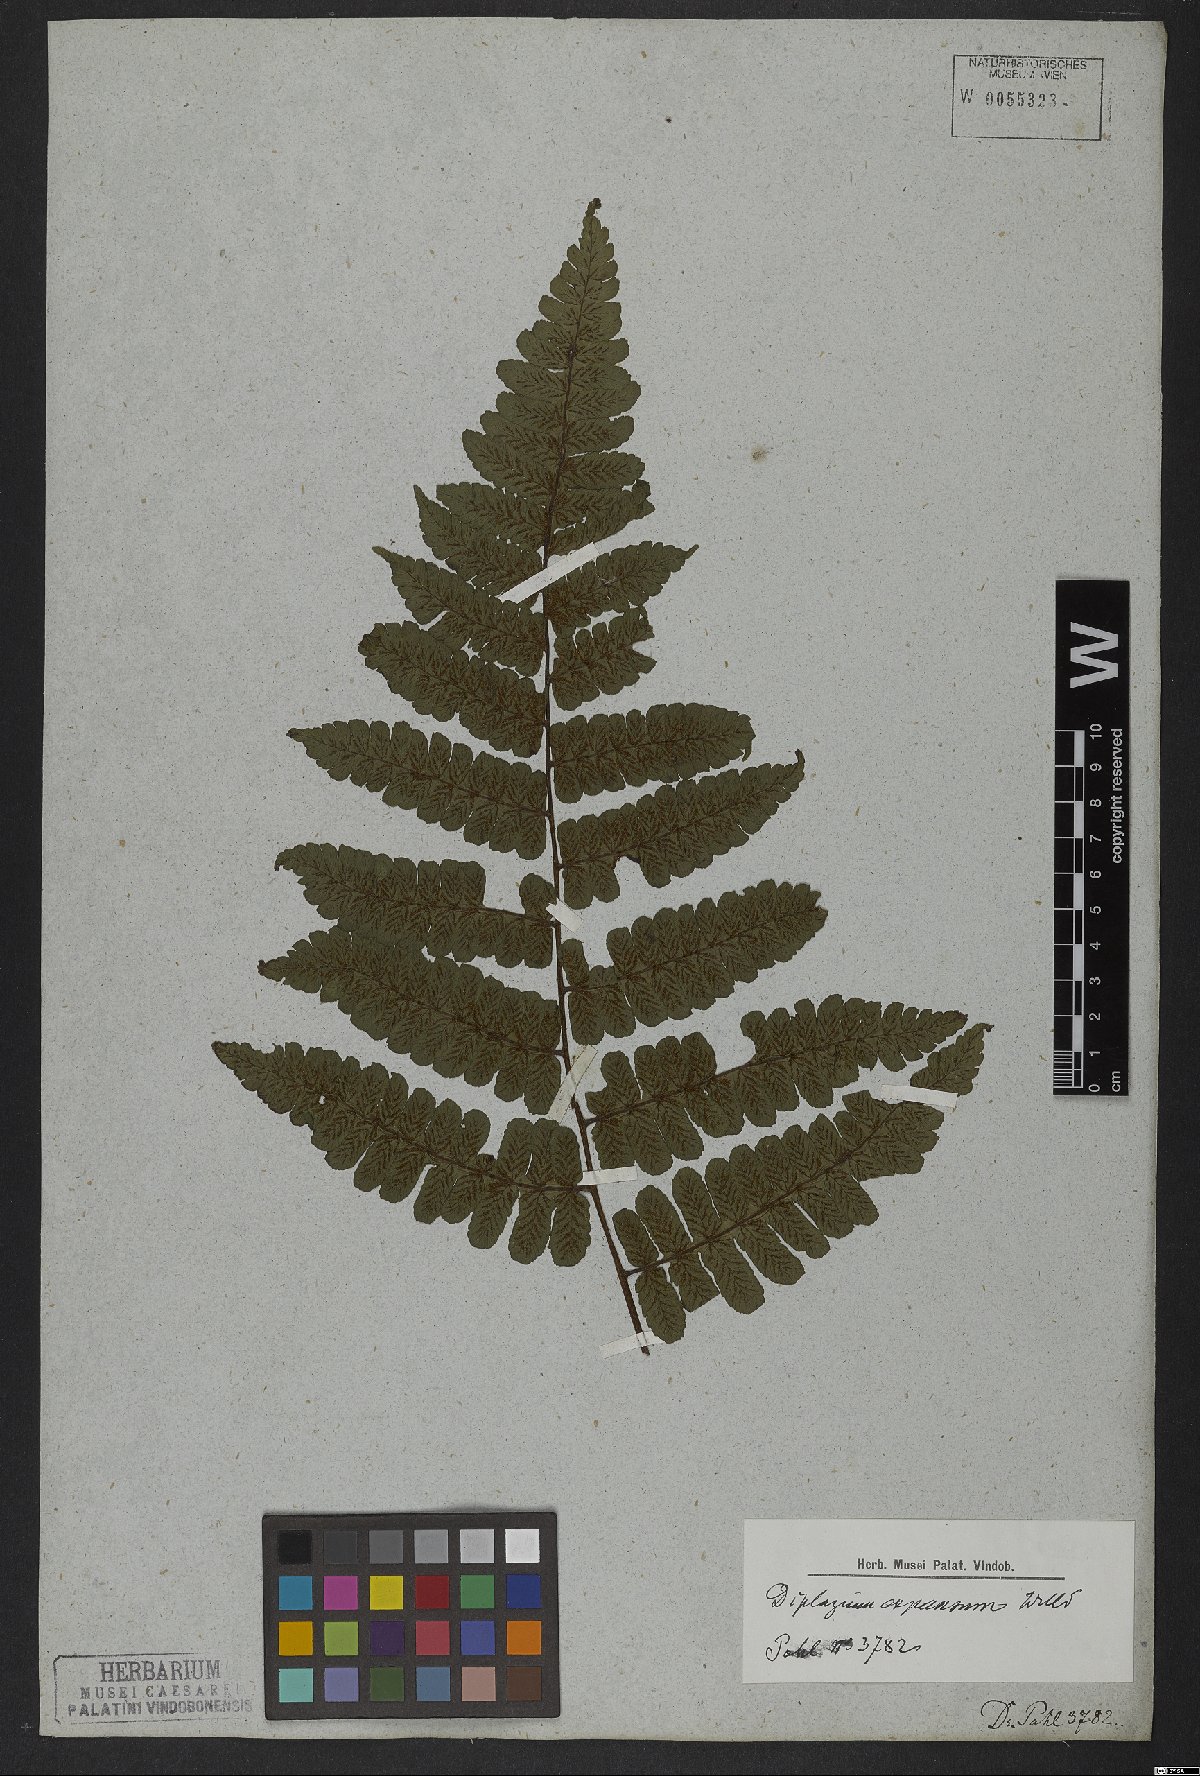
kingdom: Plantae
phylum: Tracheophyta
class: Polypodiopsida
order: Polypodiales
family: Athyriaceae
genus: Diplazium
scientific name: Diplazium expansum
